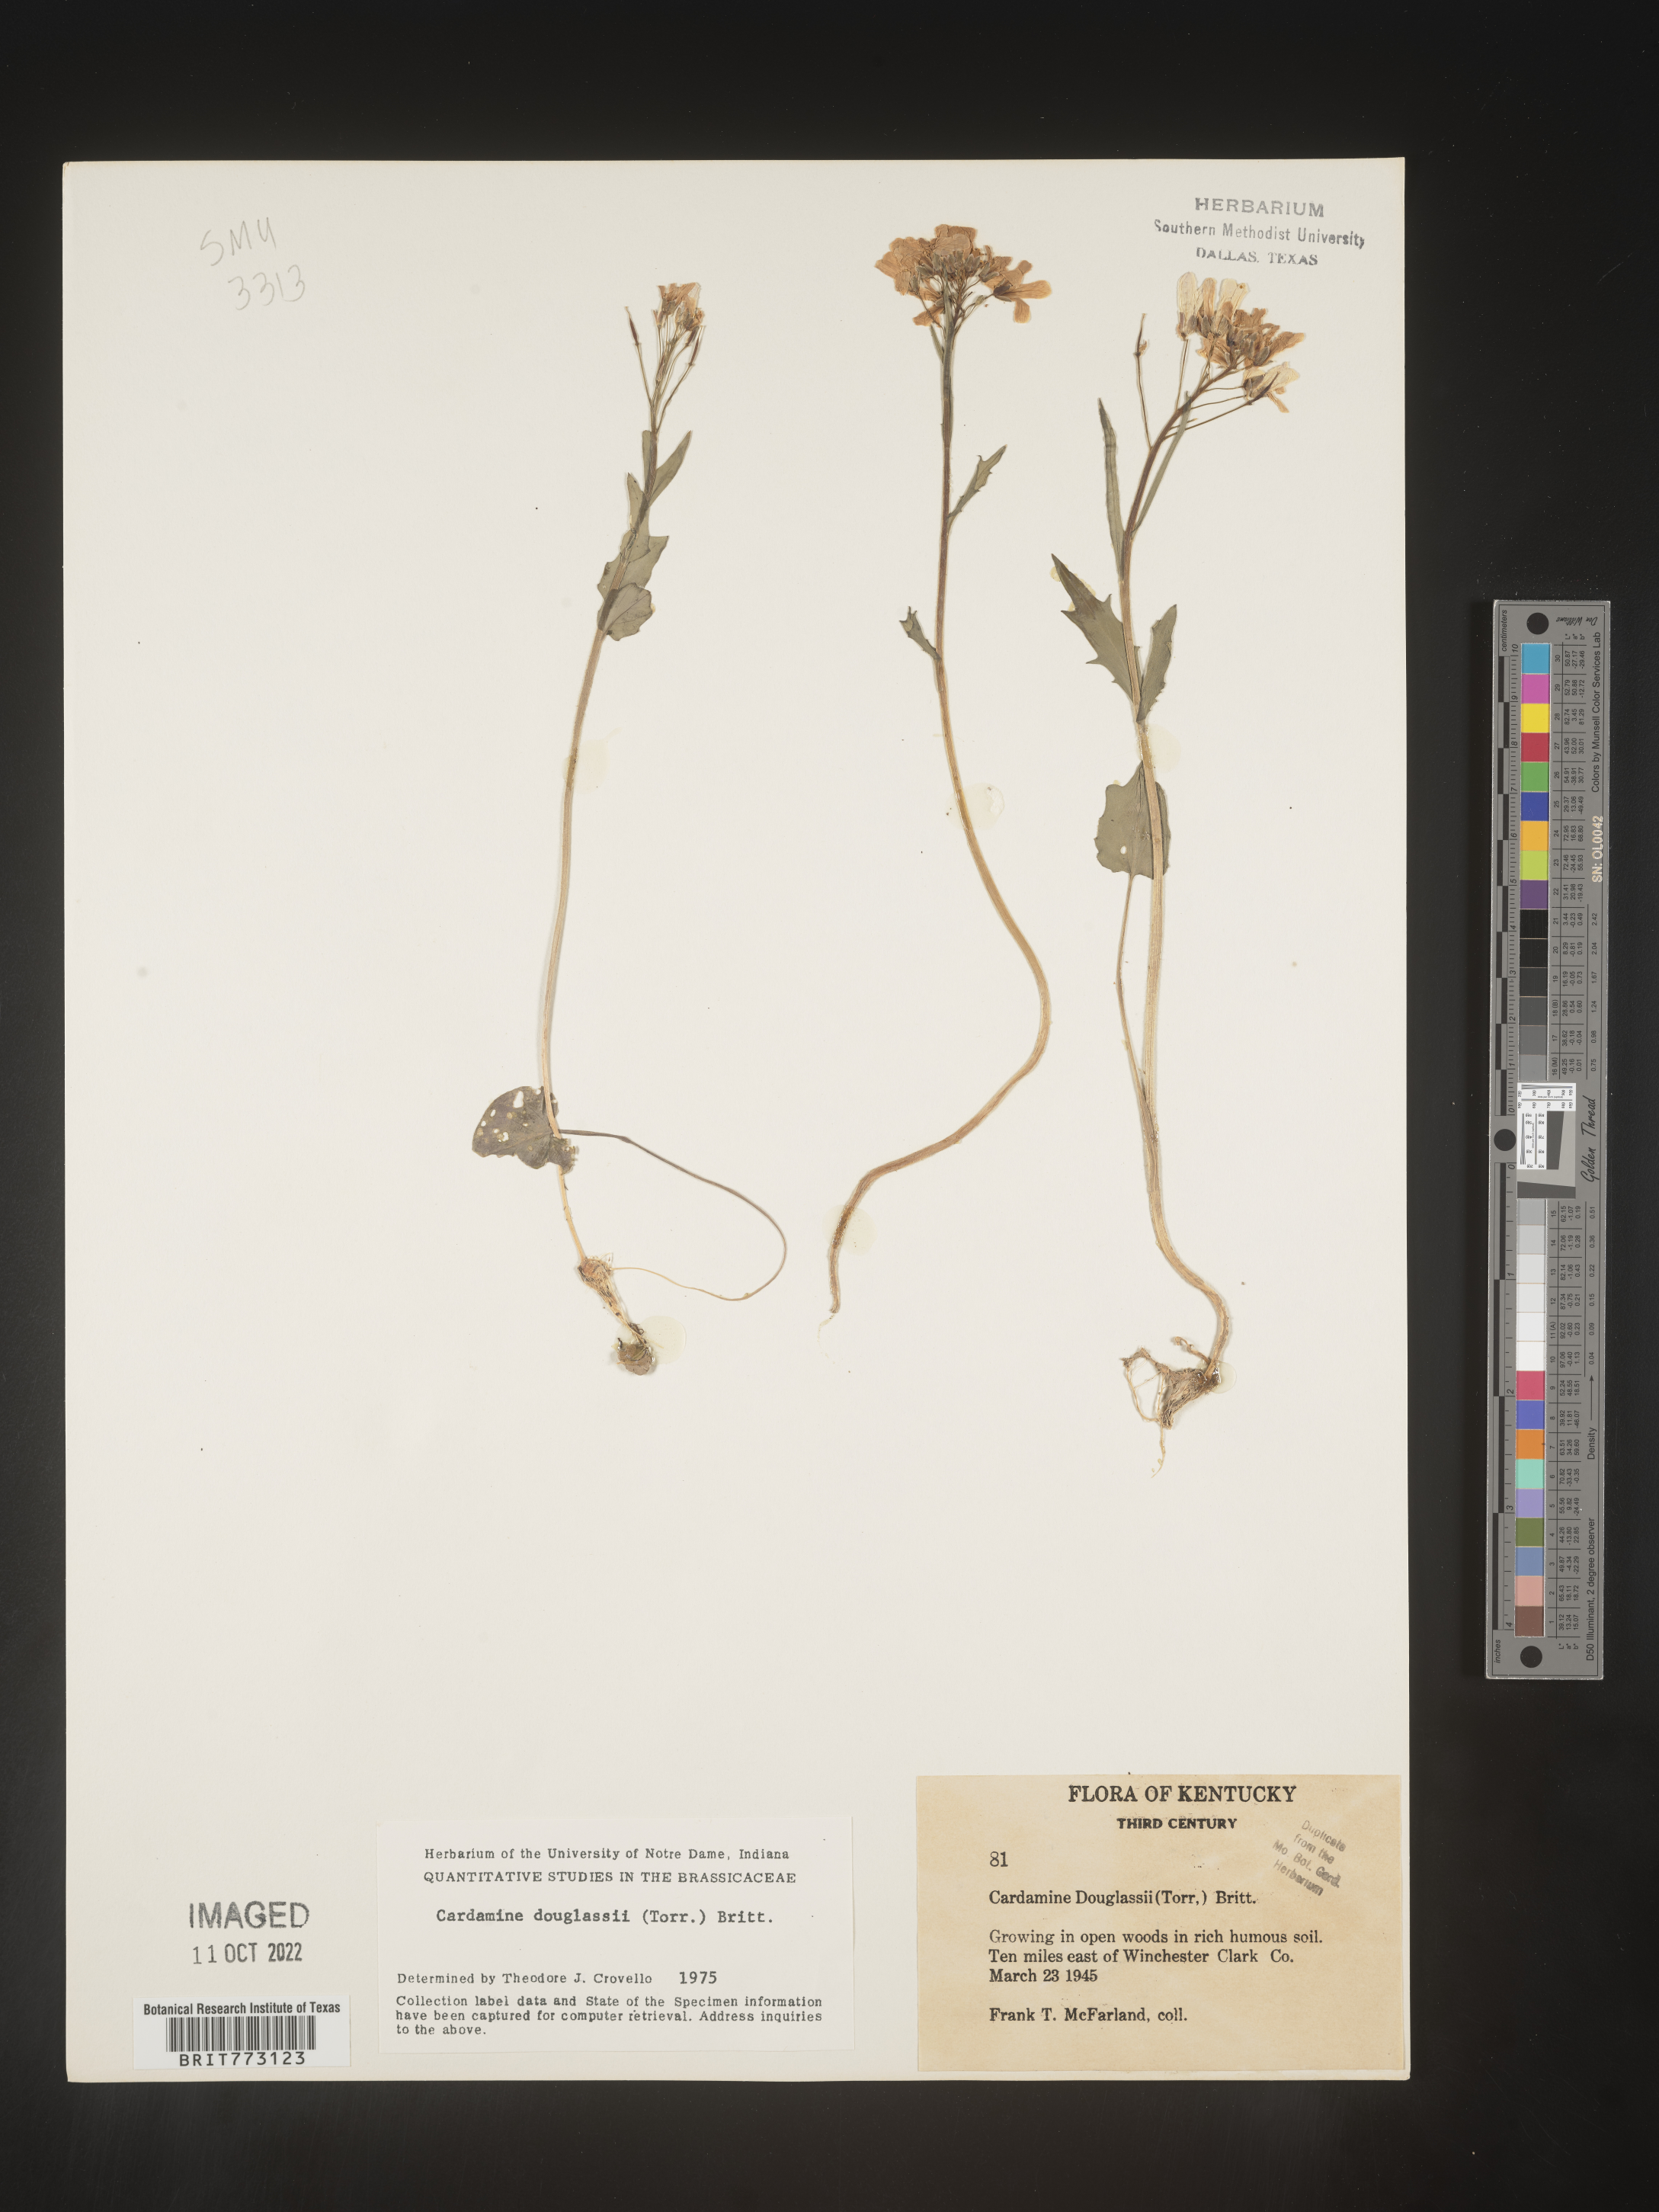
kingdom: Plantae
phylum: Tracheophyta
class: Magnoliopsida
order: Brassicales
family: Brassicaceae
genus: Cardamine
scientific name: Cardamine
